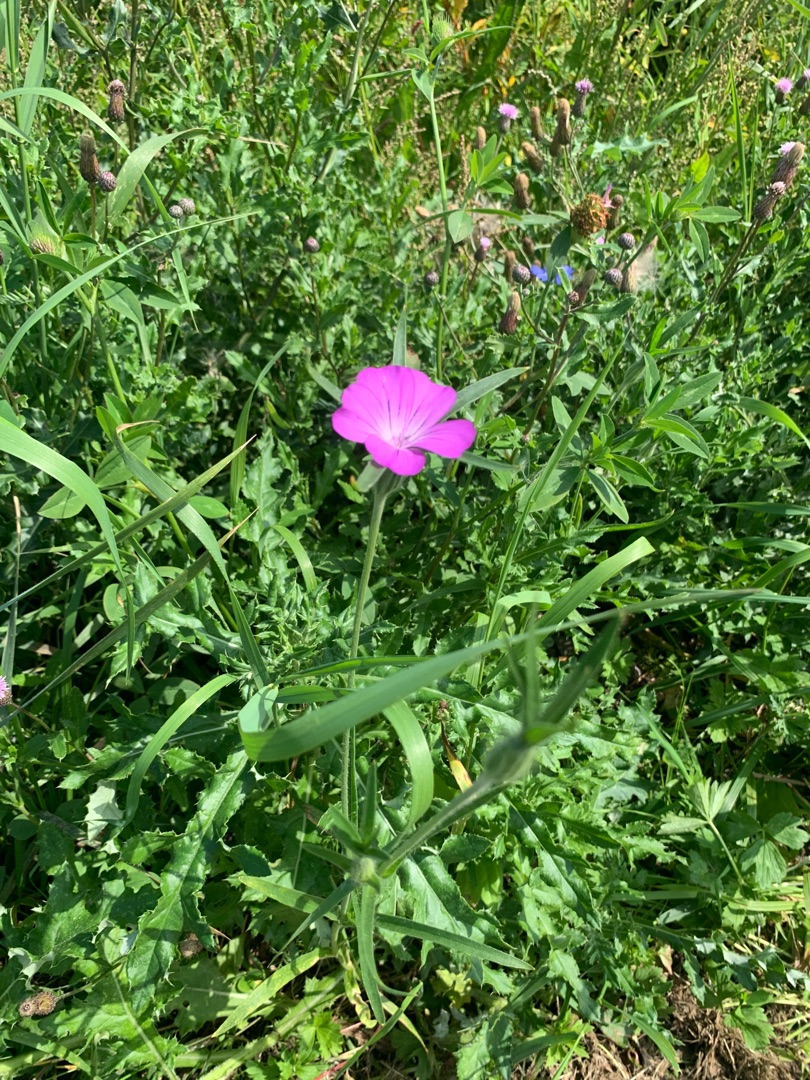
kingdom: Plantae
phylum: Tracheophyta
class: Magnoliopsida
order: Caryophyllales
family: Caryophyllaceae
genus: Agrostemma
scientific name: Agrostemma githago
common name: Klinte
